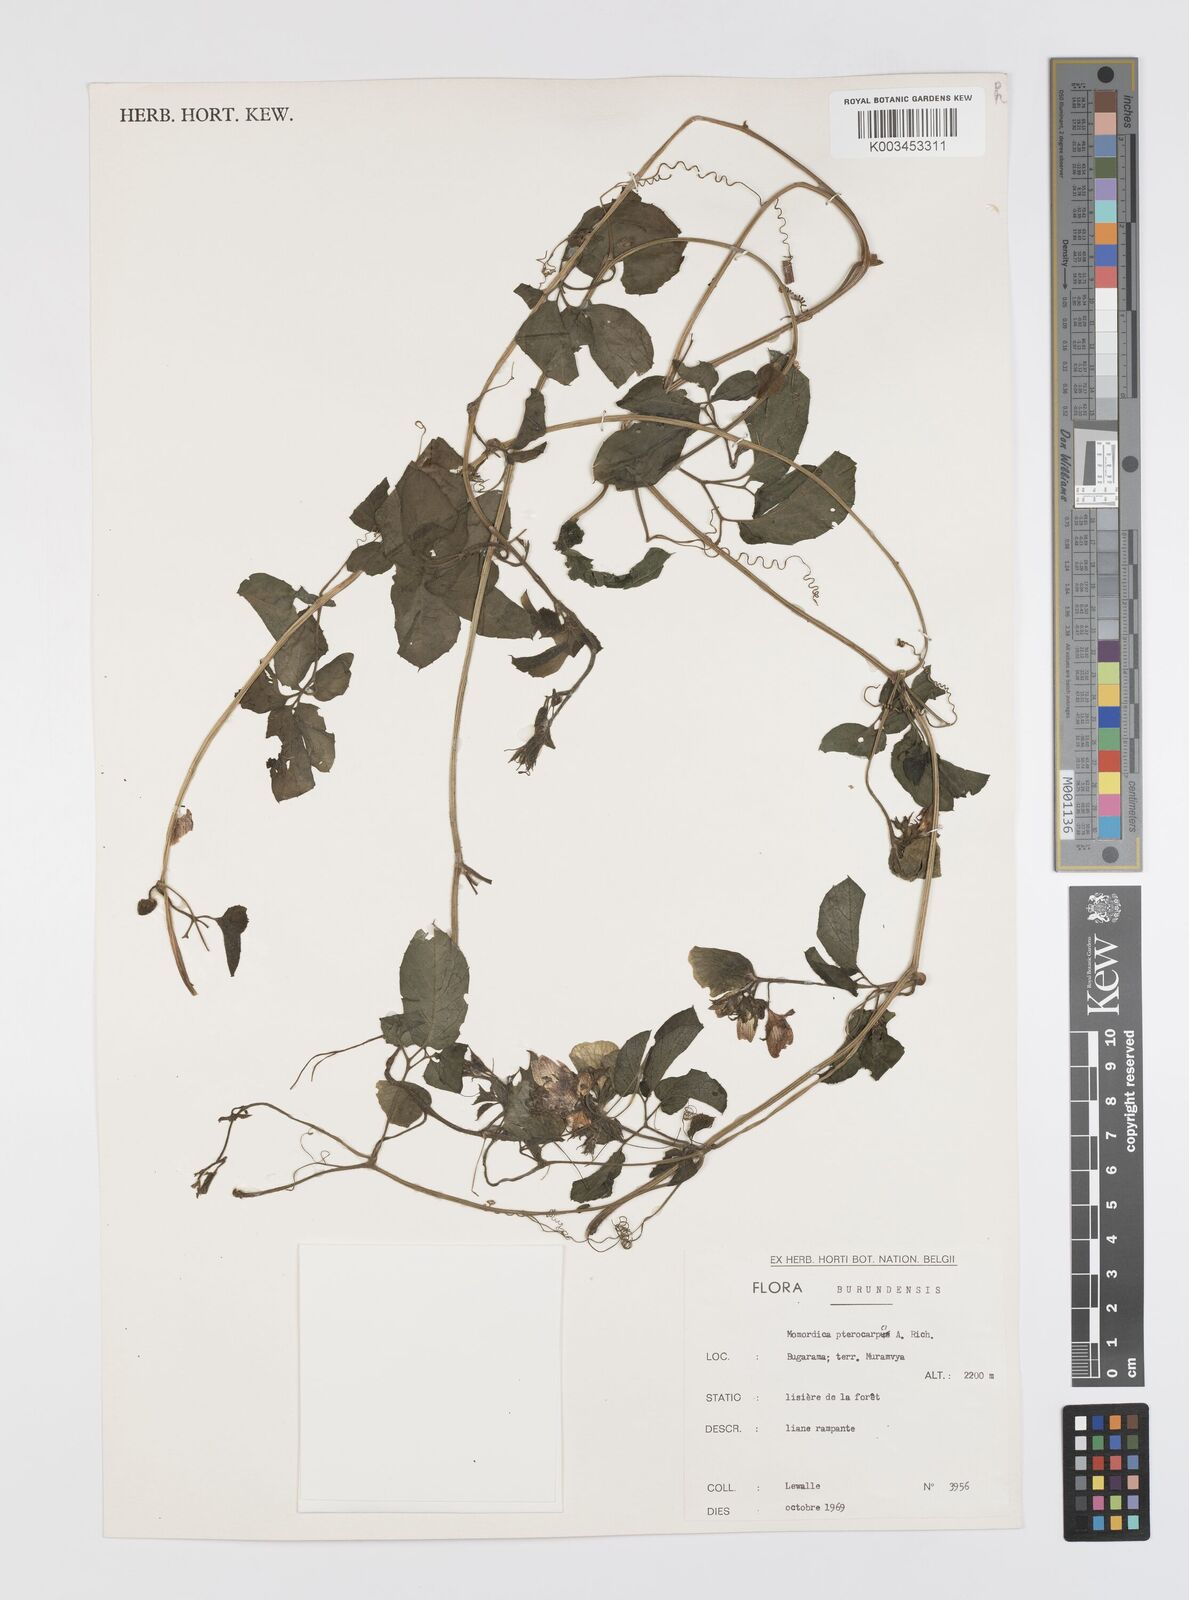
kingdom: Plantae
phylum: Tracheophyta
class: Magnoliopsida
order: Cucurbitales
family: Cucurbitaceae
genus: Momordica
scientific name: Momordica pterocarpa
